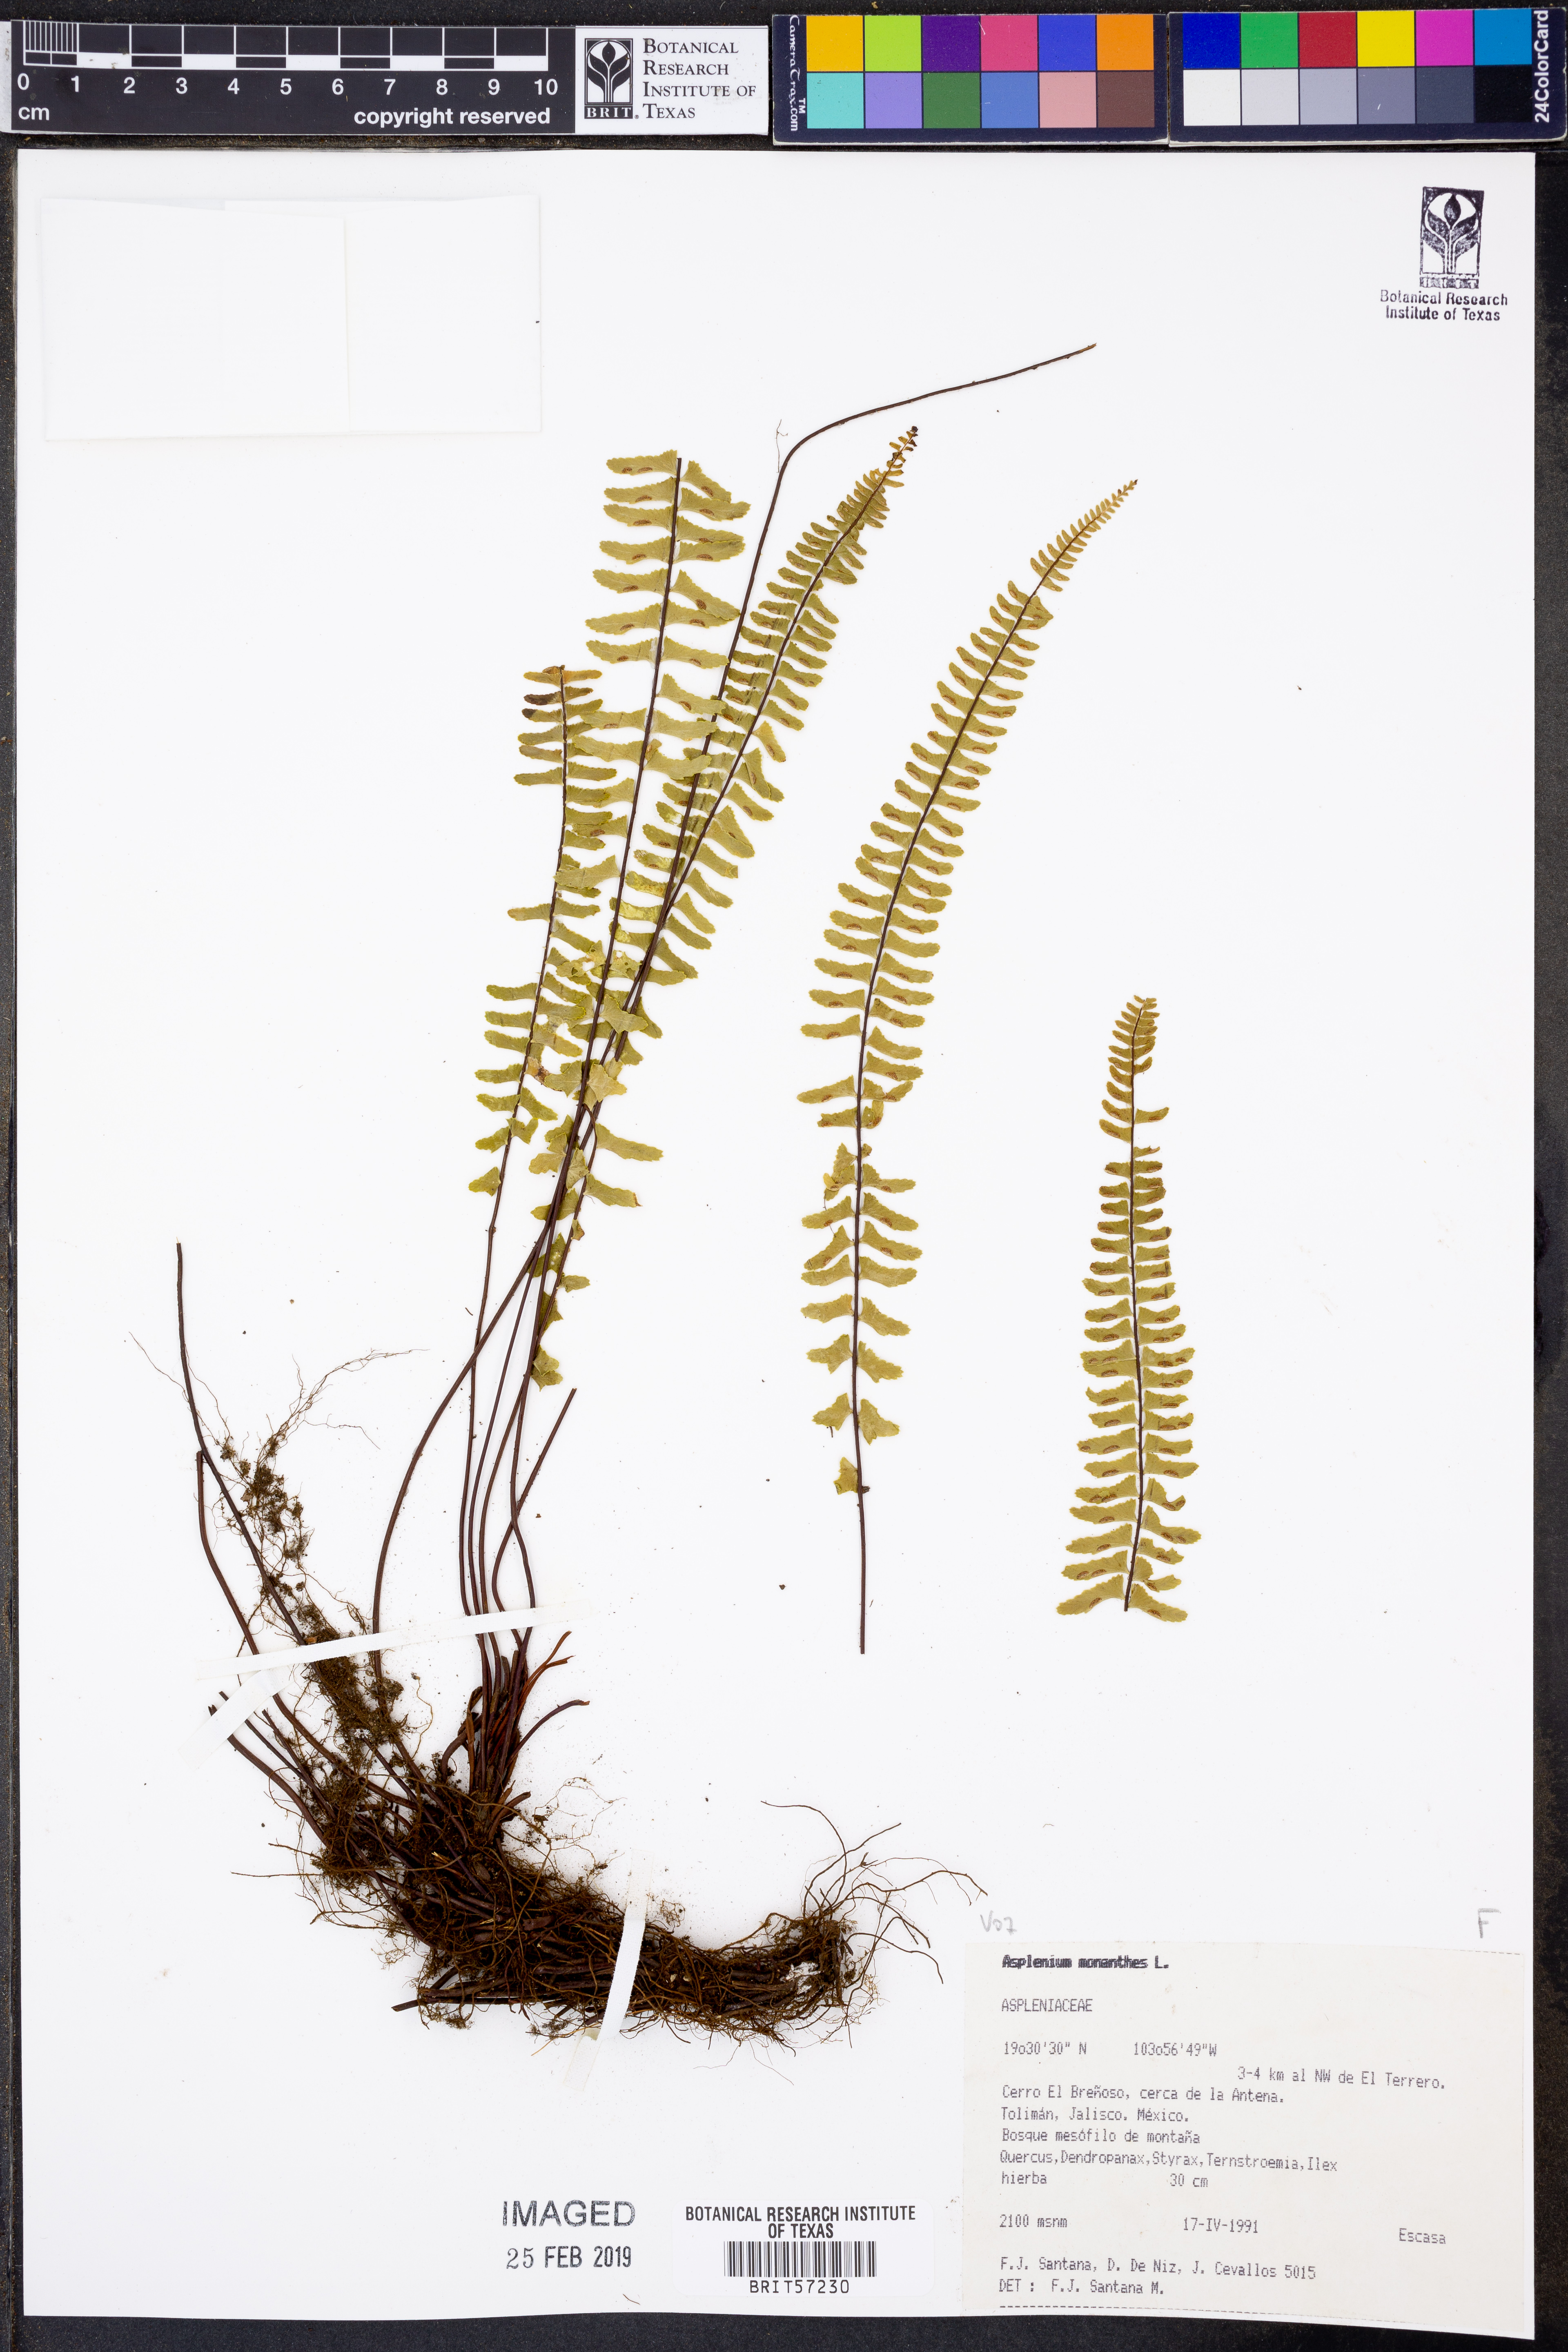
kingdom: Plantae
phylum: Tracheophyta
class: Polypodiopsida
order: Polypodiales
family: Aspleniaceae
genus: Asplenium
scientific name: Asplenium monanthes
